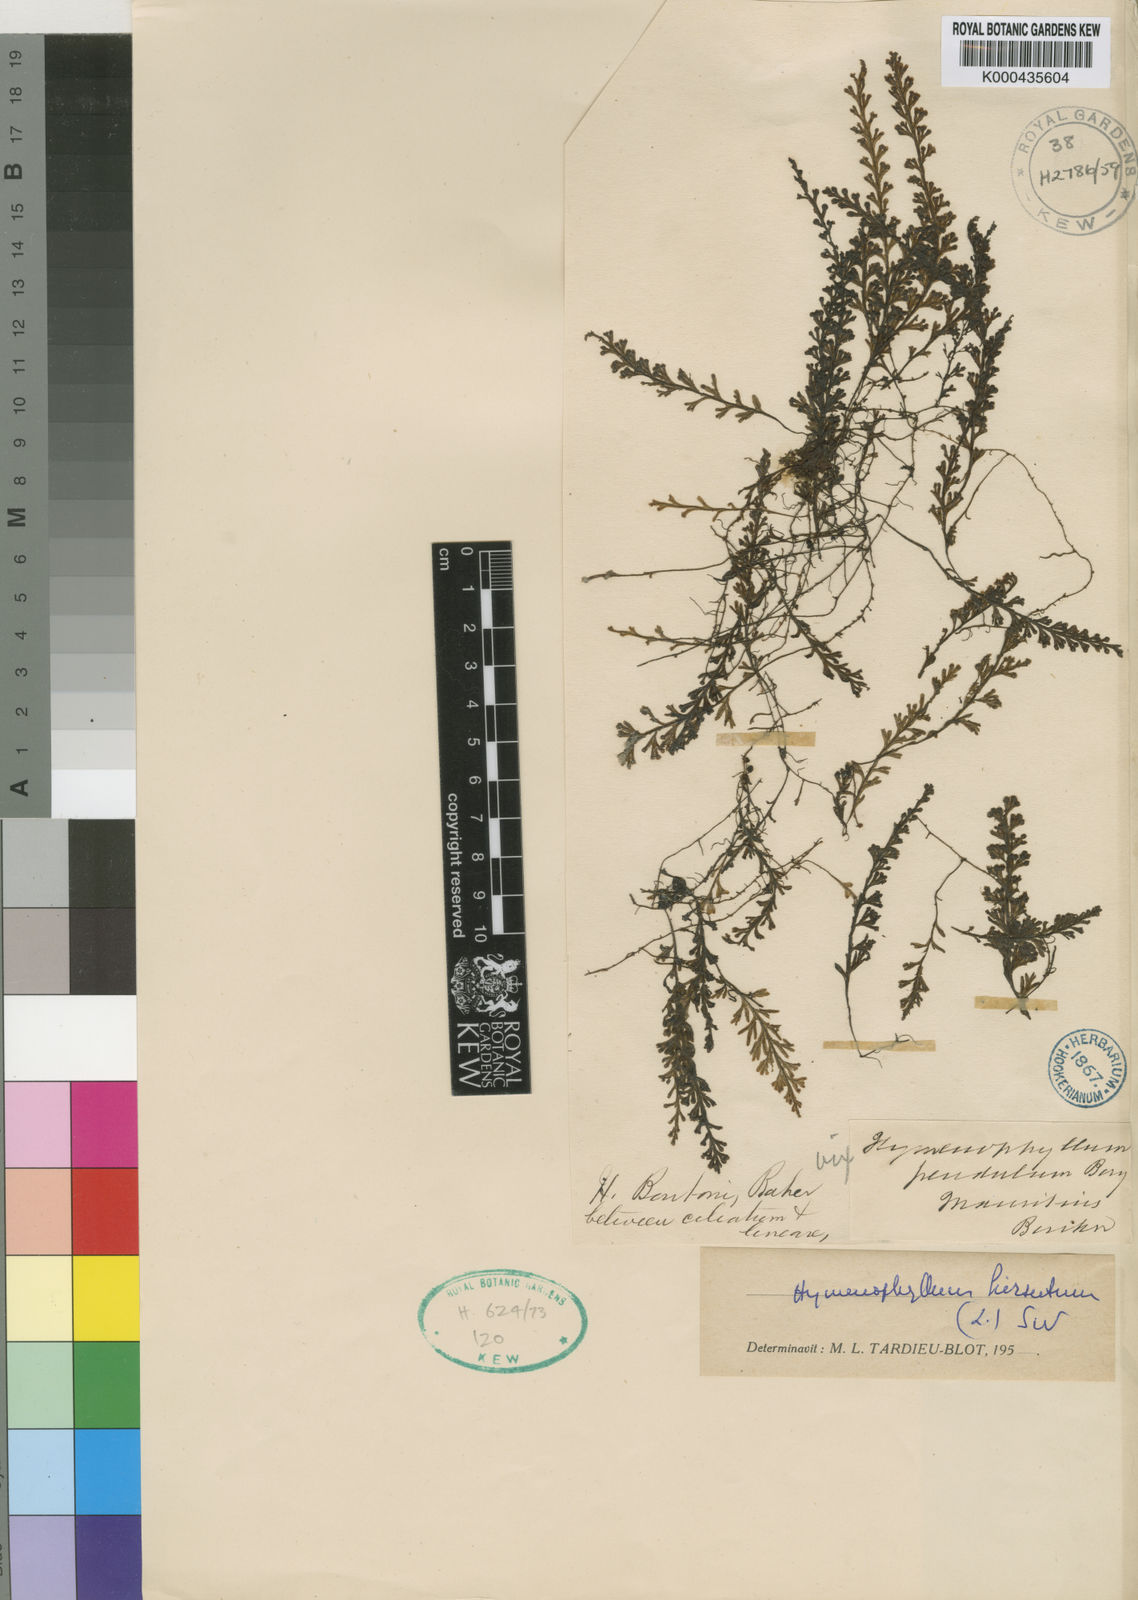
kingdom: Plantae
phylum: Tracheophyta
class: Polypodiopsida
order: Hymenophyllales
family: Hymenophyllaceae
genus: Hymenophyllum
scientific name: Hymenophyllum hirsutum
